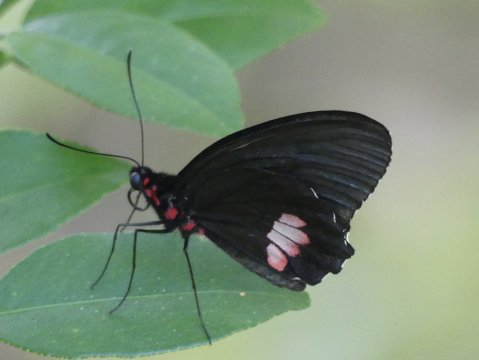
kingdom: Animalia
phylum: Arthropoda
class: Insecta
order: Lepidoptera
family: Papilionidae
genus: Parides
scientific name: Parides erithalion
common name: Variable Cattleheart
